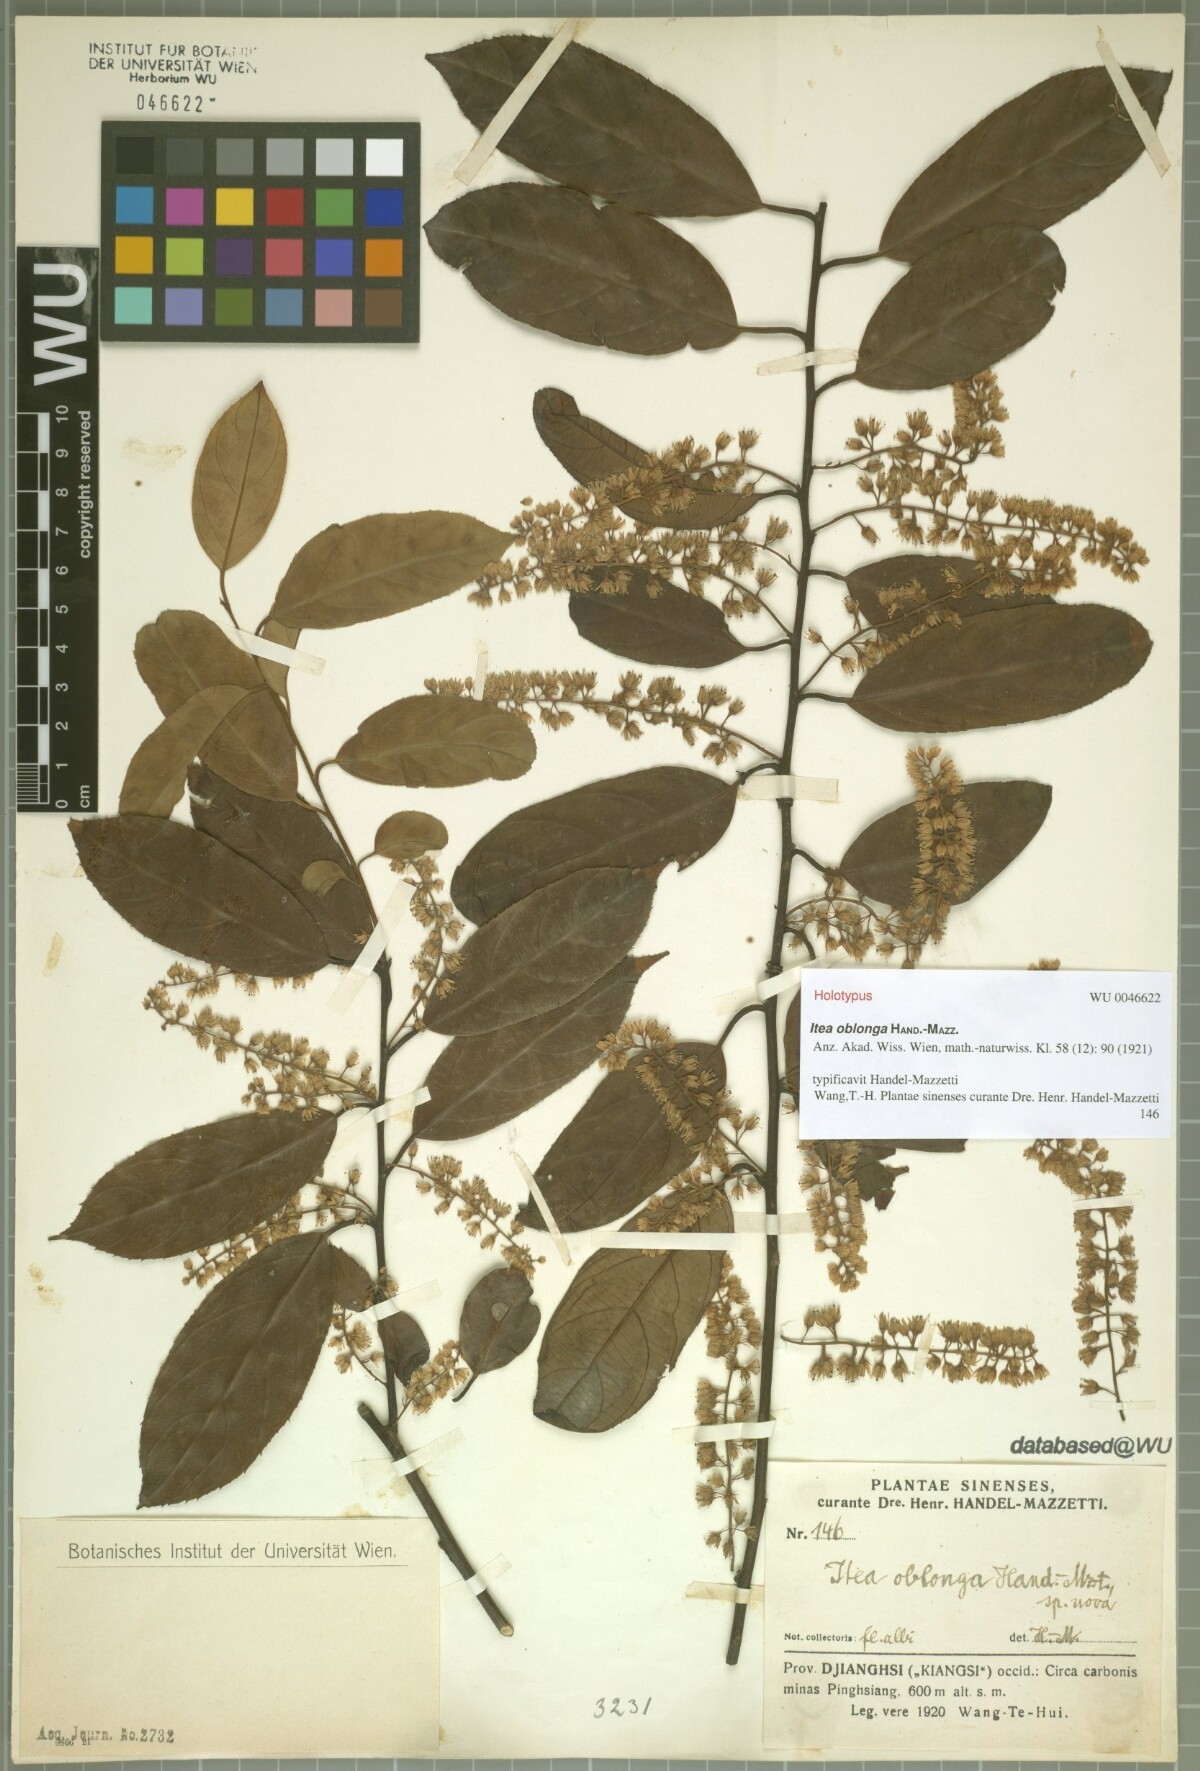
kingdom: Plantae
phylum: Tracheophyta
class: Magnoliopsida
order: Saxifragales
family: Iteaceae
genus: Itea
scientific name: Itea omeiensis
